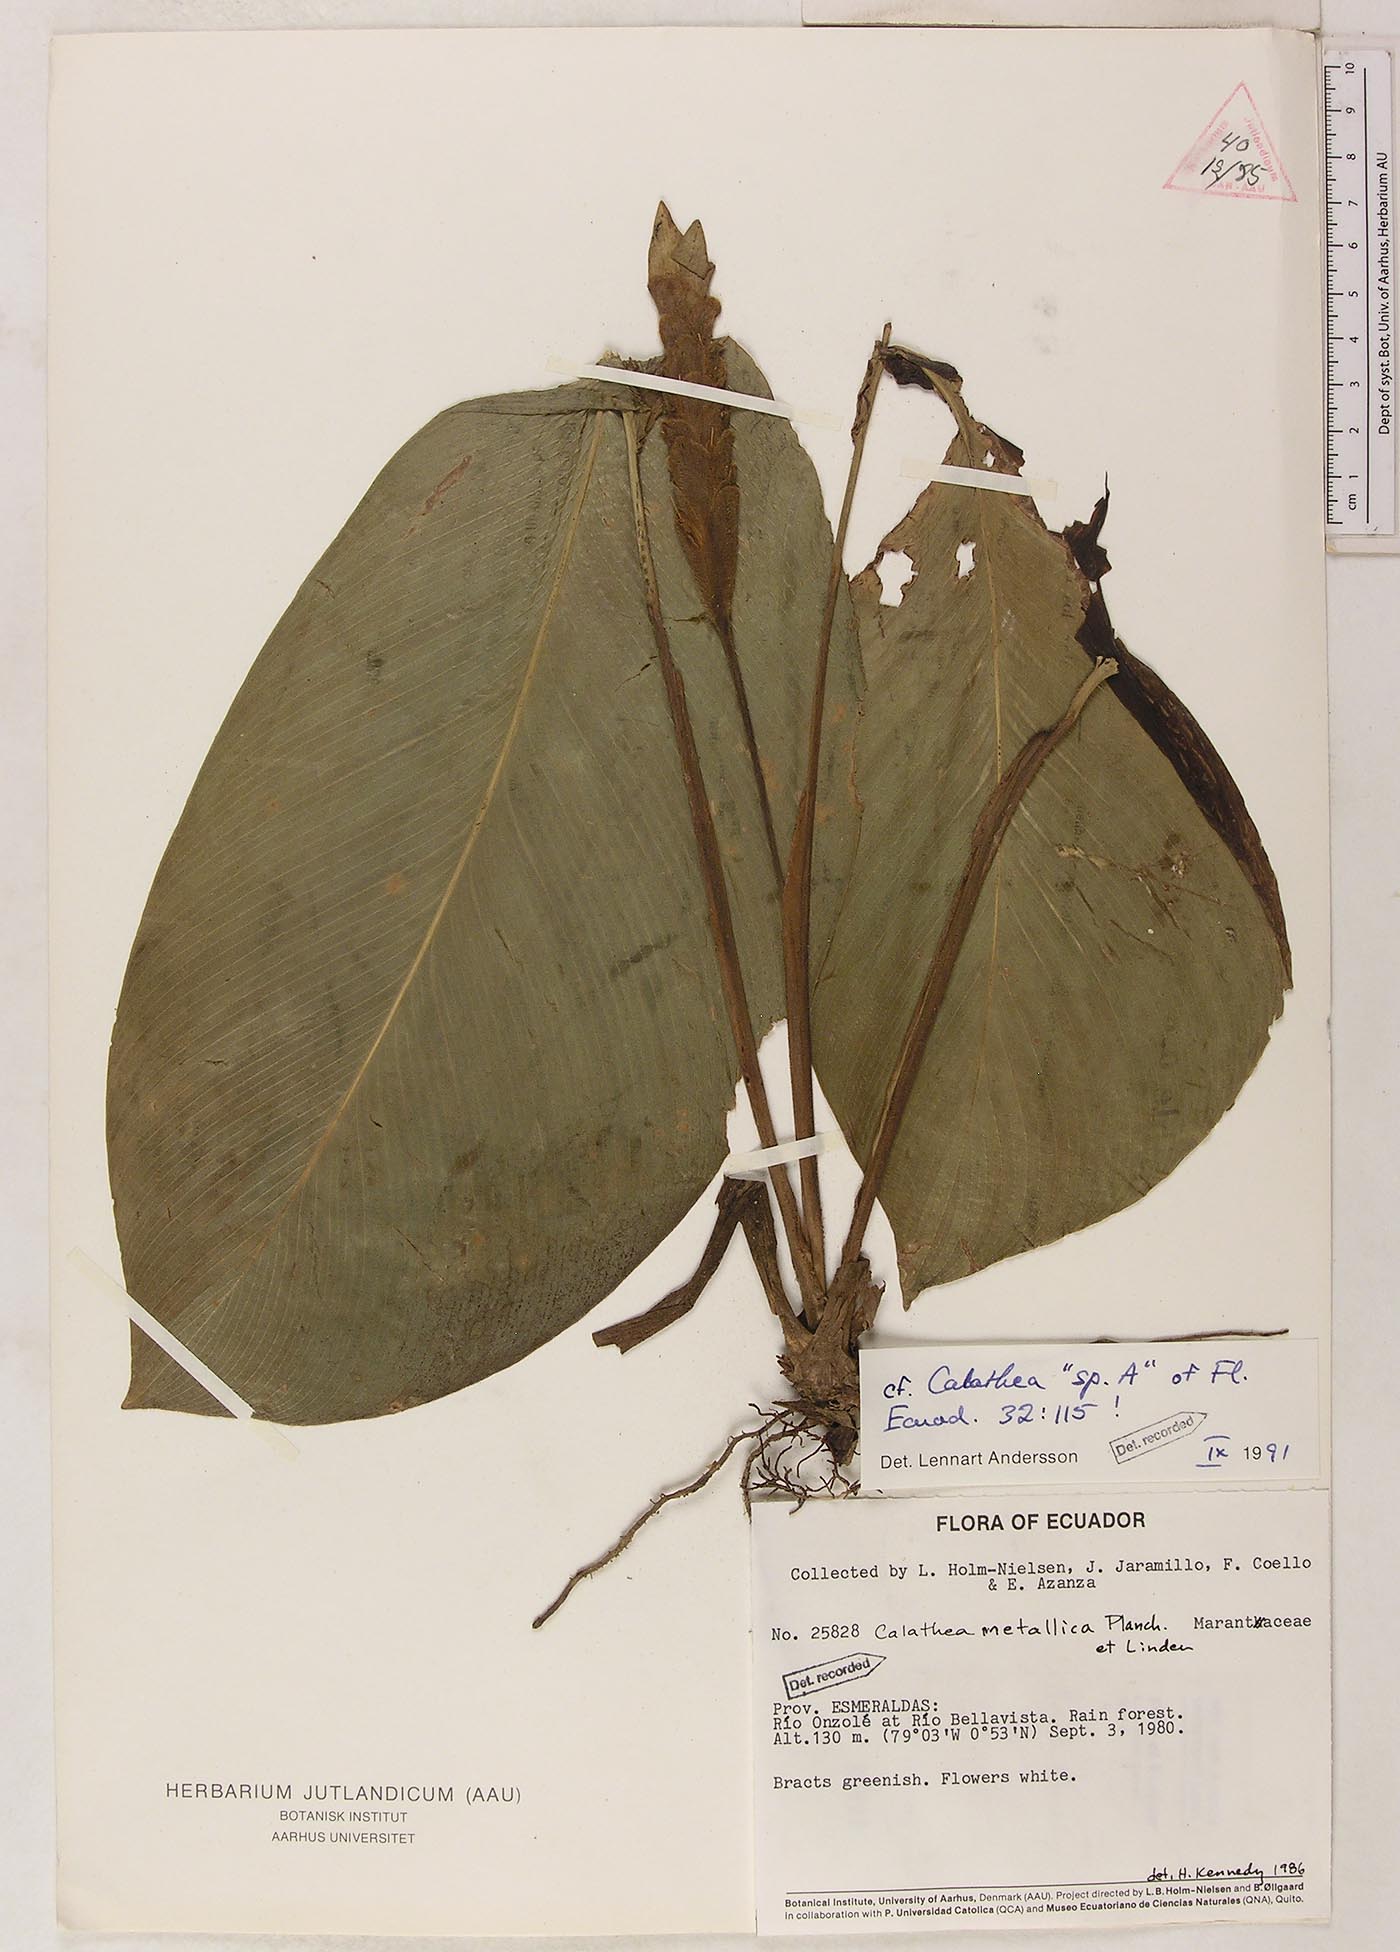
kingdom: Plantae
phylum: Tracheophyta
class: Liliopsida
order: Zingiberales
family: Marantaceae
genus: Goeppertia
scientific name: Goeppertia metallica
